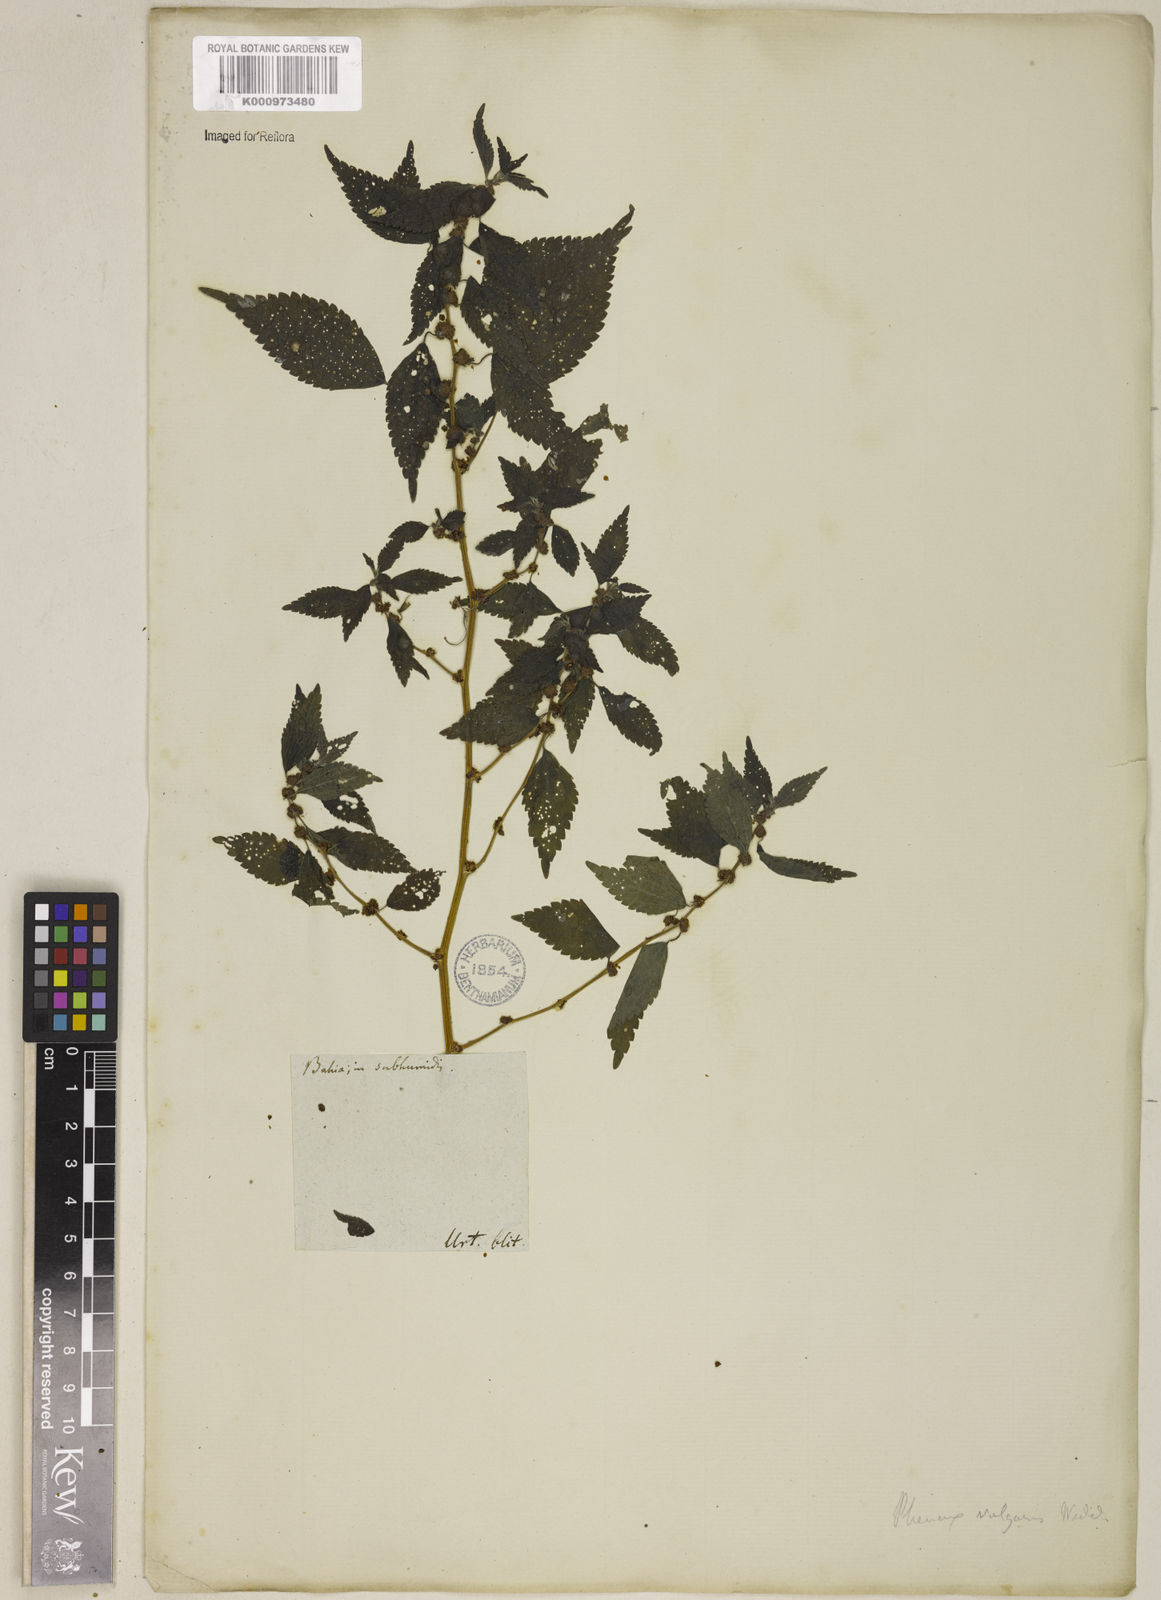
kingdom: Plantae
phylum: Tracheophyta
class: Magnoliopsida
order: Rosales
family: Urticaceae
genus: Phenax
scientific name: Phenax sonneratii
